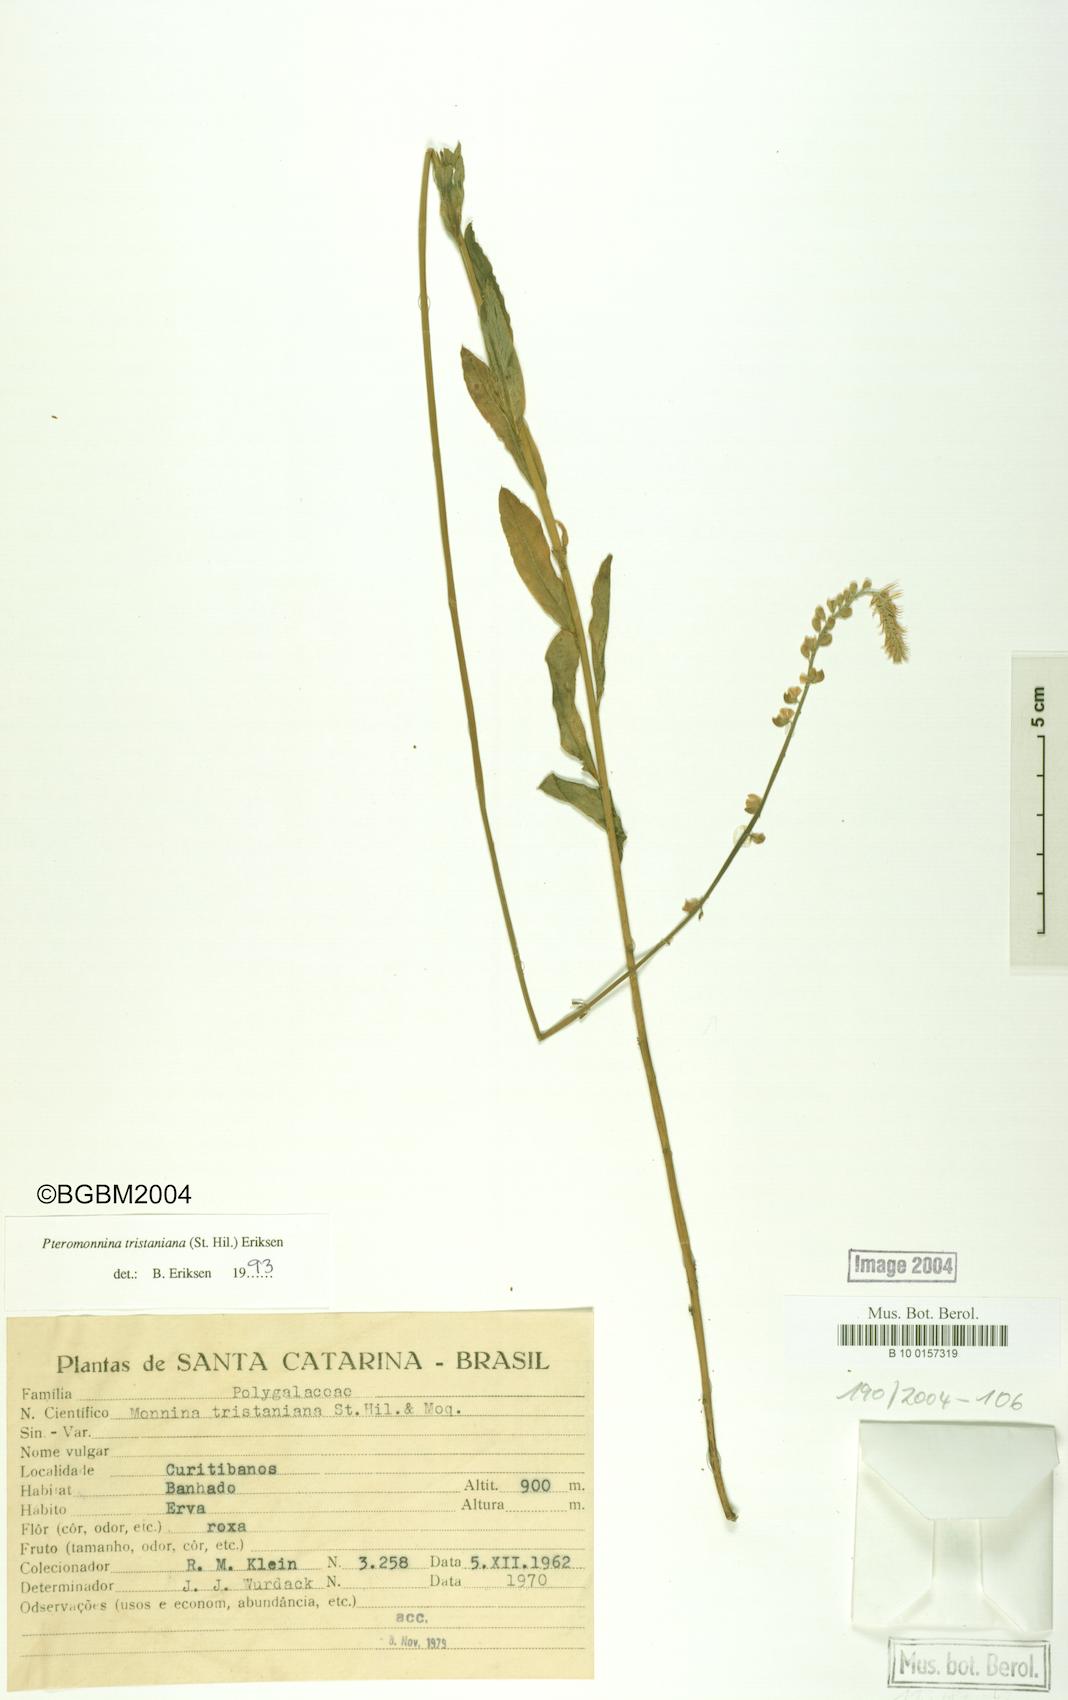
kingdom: Plantae
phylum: Tracheophyta
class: Magnoliopsida
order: Fabales
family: Polygalaceae
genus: Monnina
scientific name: Monnina tristaniana
